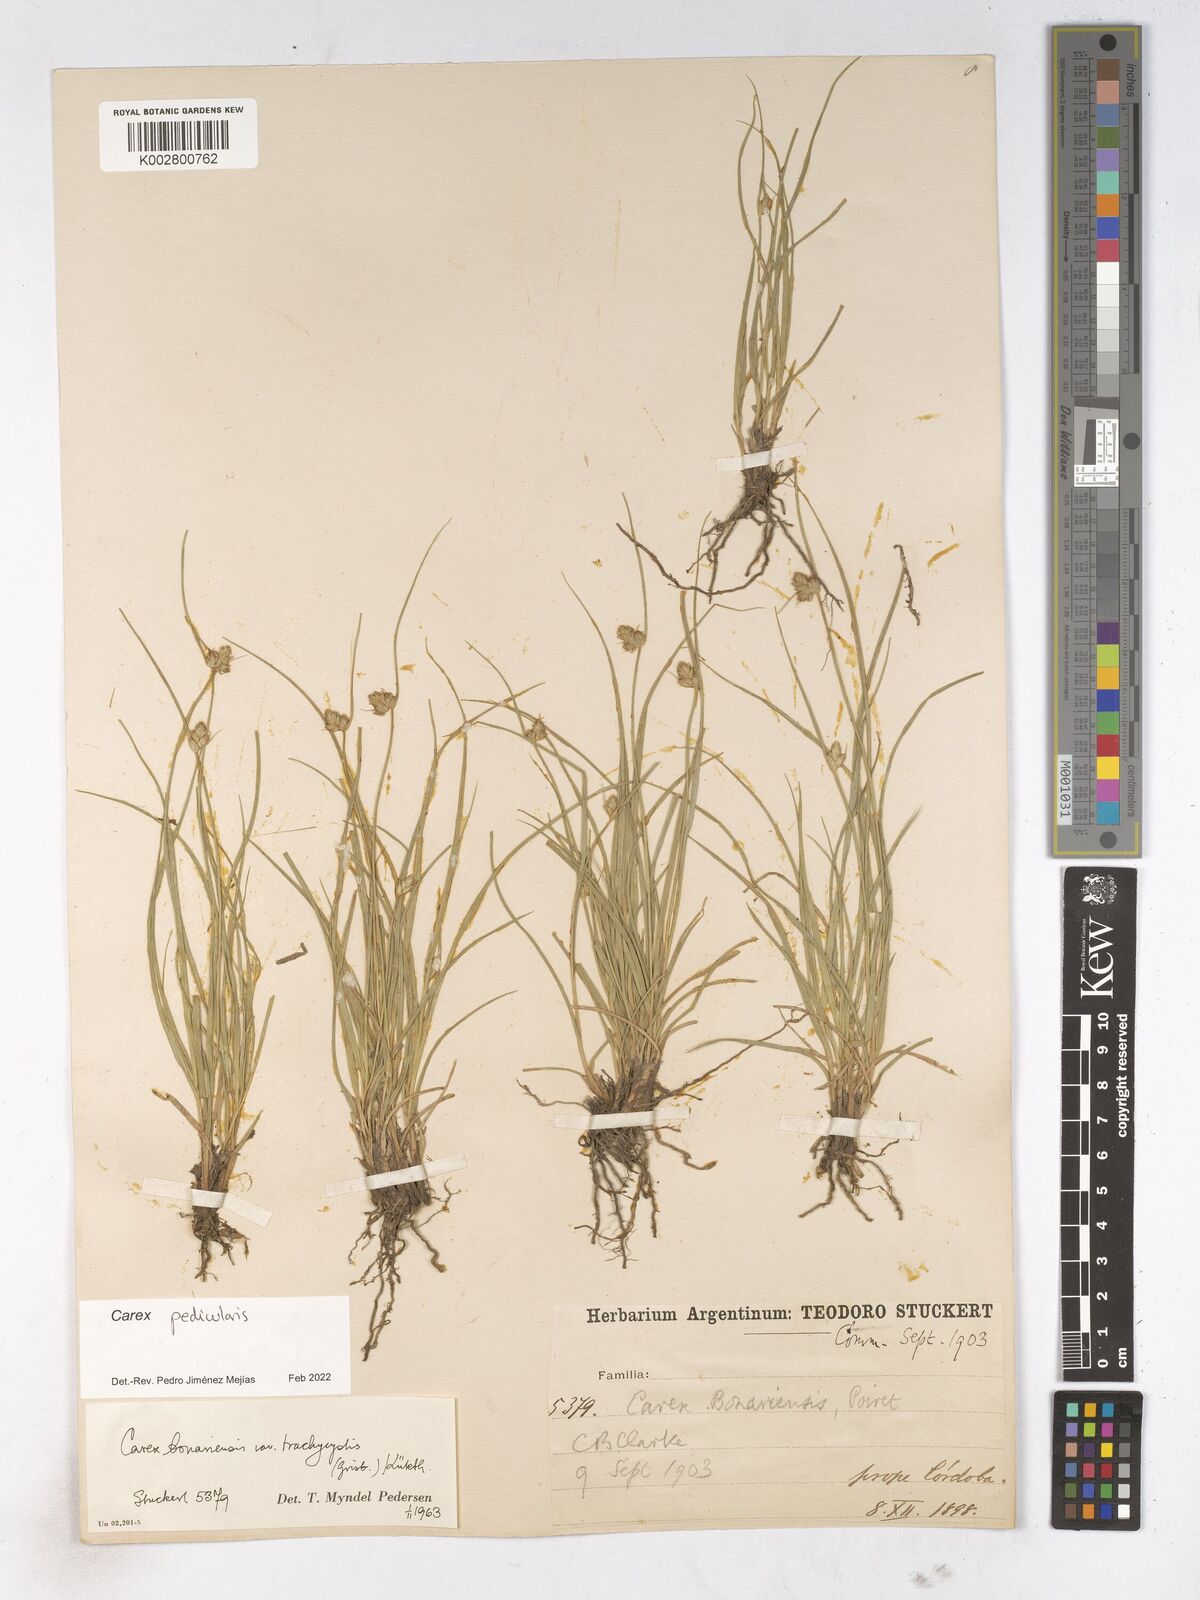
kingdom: Plantae
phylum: Tracheophyta
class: Liliopsida
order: Poales
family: Cyperaceae
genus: Carex
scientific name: Carex bonariensis
